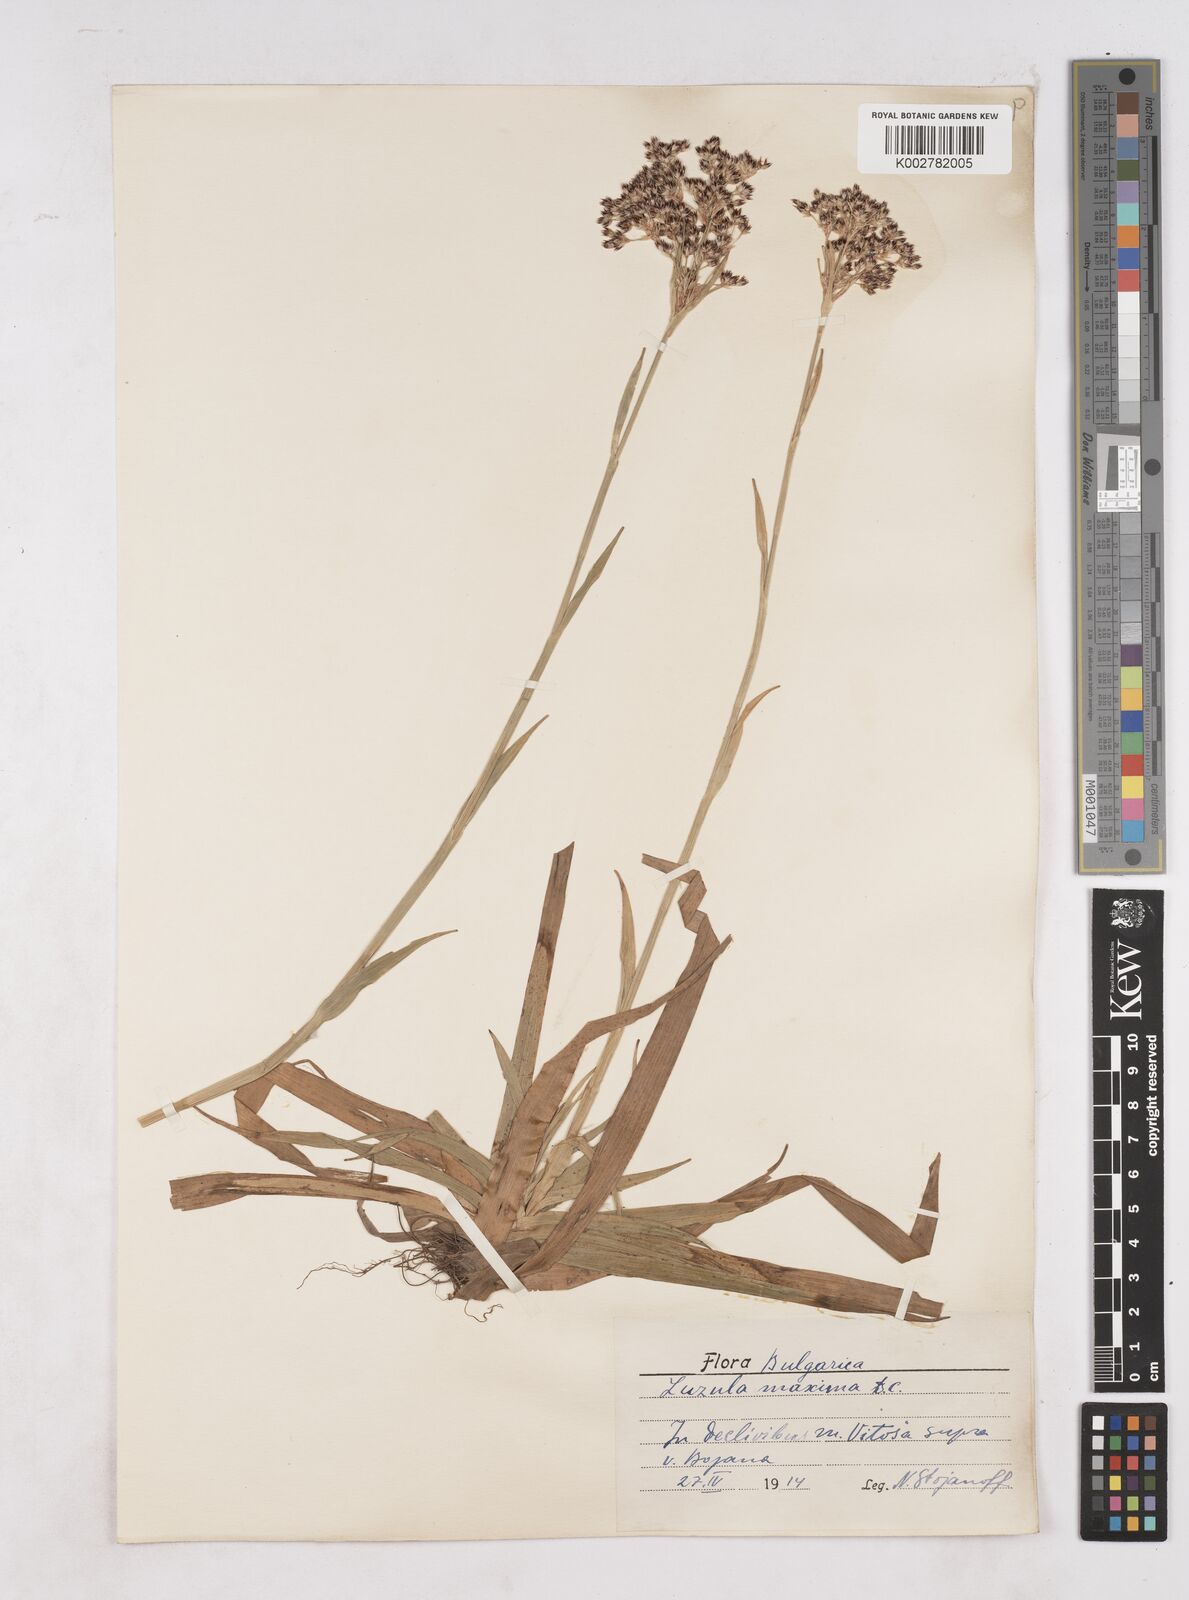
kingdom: Plantae
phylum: Tracheophyta
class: Liliopsida
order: Poales
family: Juncaceae
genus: Luzula
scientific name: Luzula sylvatica
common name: Great wood-rush
